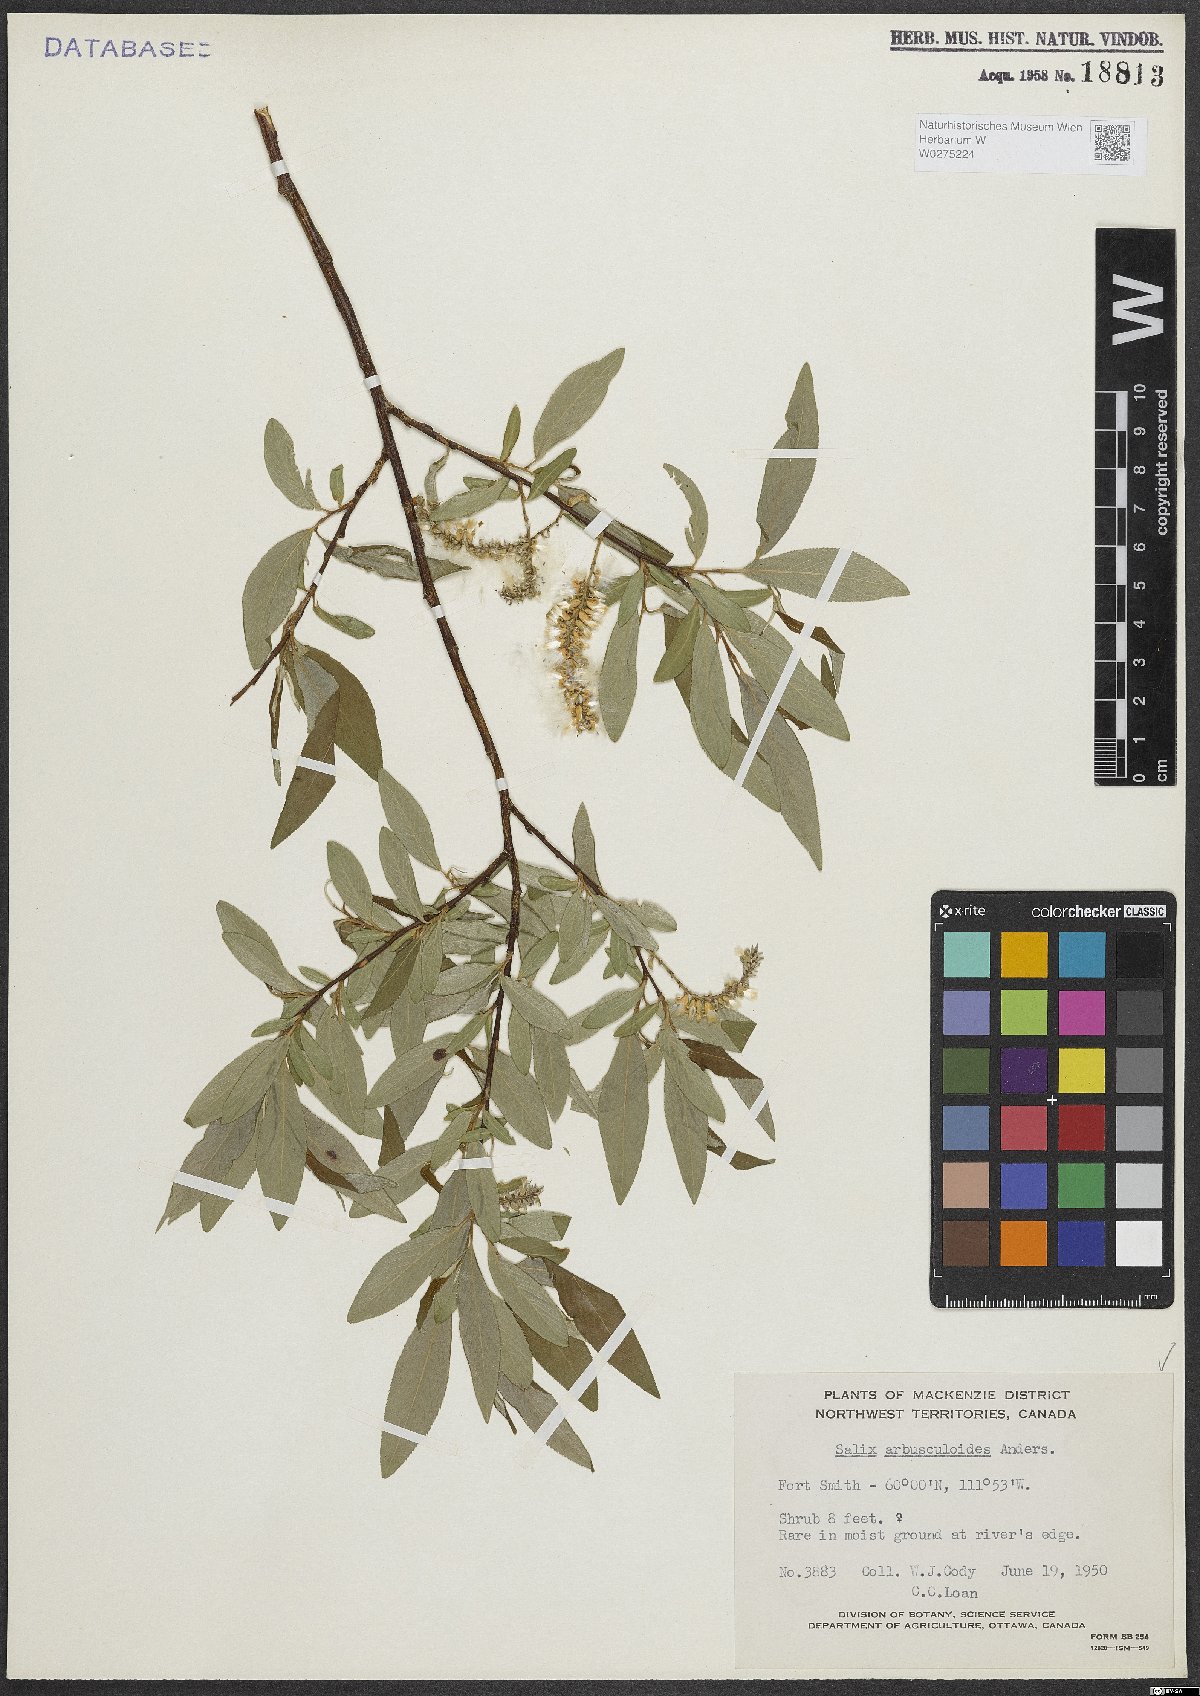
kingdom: Plantae
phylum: Tracheophyta
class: Magnoliopsida
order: Malpighiales
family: Salicaceae
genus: Salix
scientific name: Salix arbusculoides
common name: Little-tree willow
